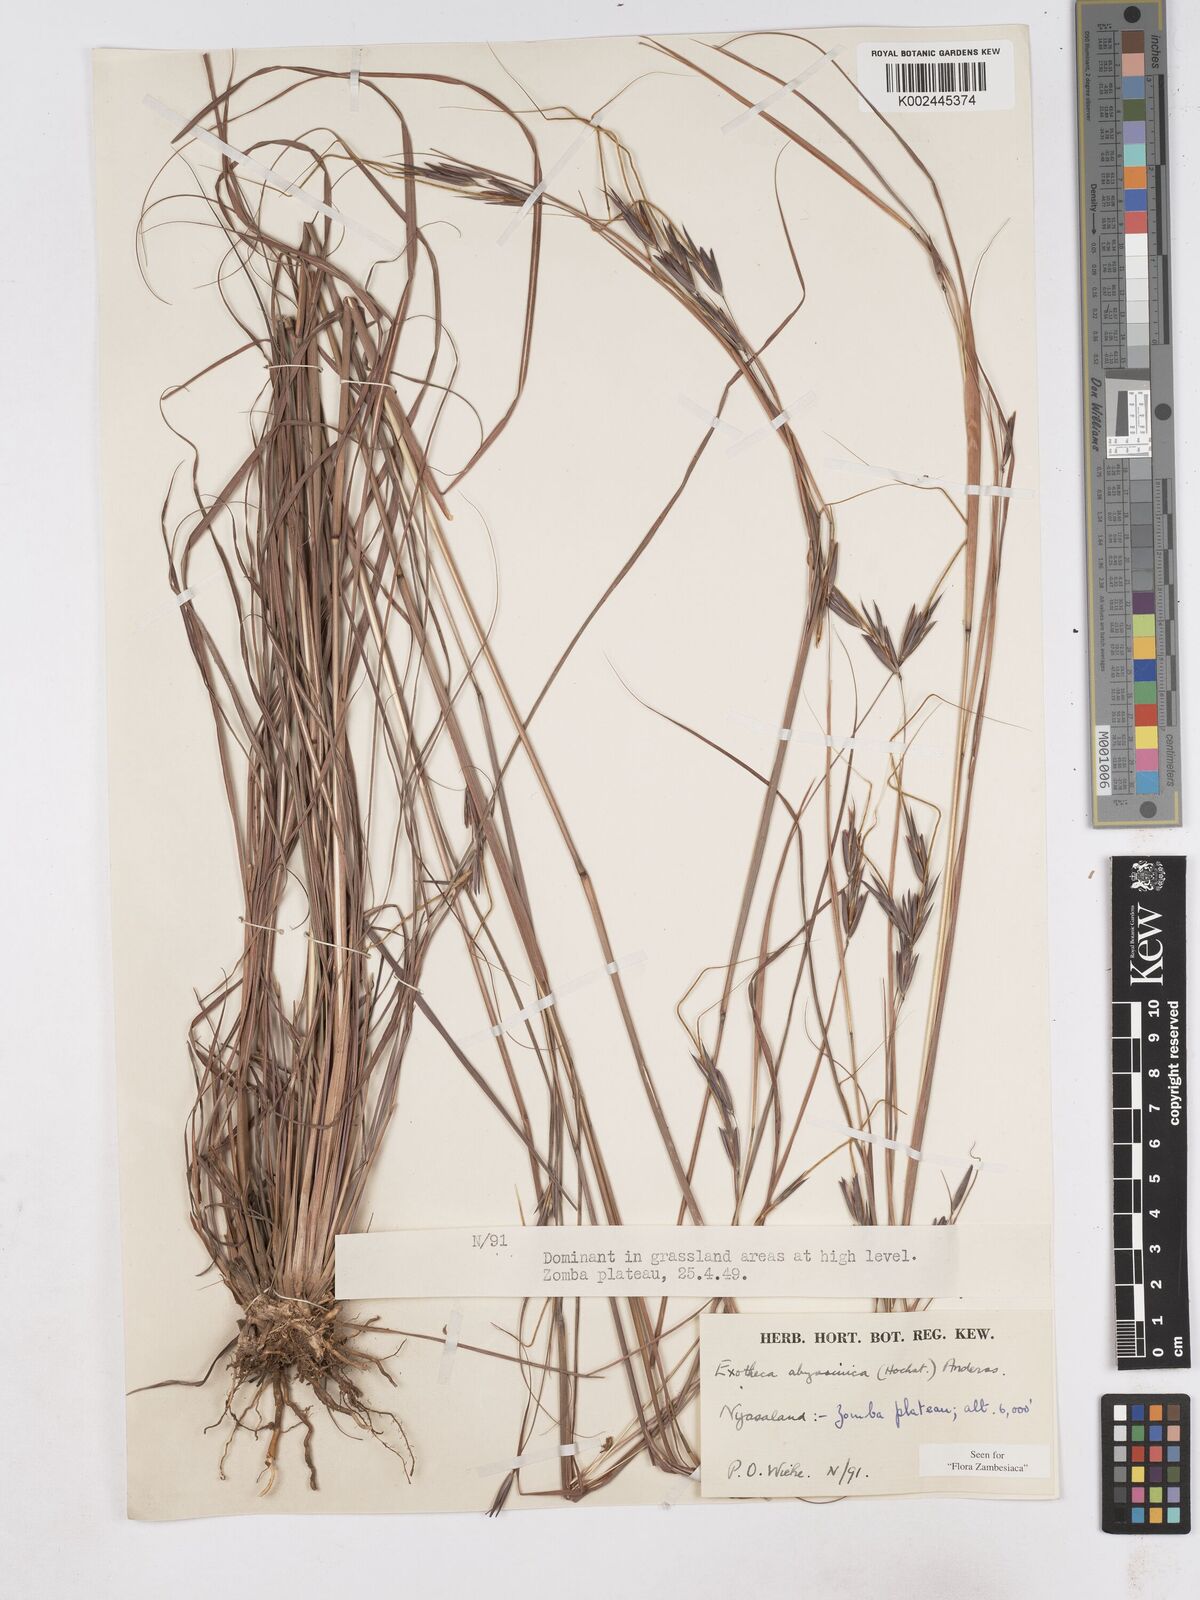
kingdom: Plantae
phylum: Tracheophyta
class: Liliopsida
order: Poales
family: Poaceae
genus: Exotheca
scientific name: Exotheca abyssinica
